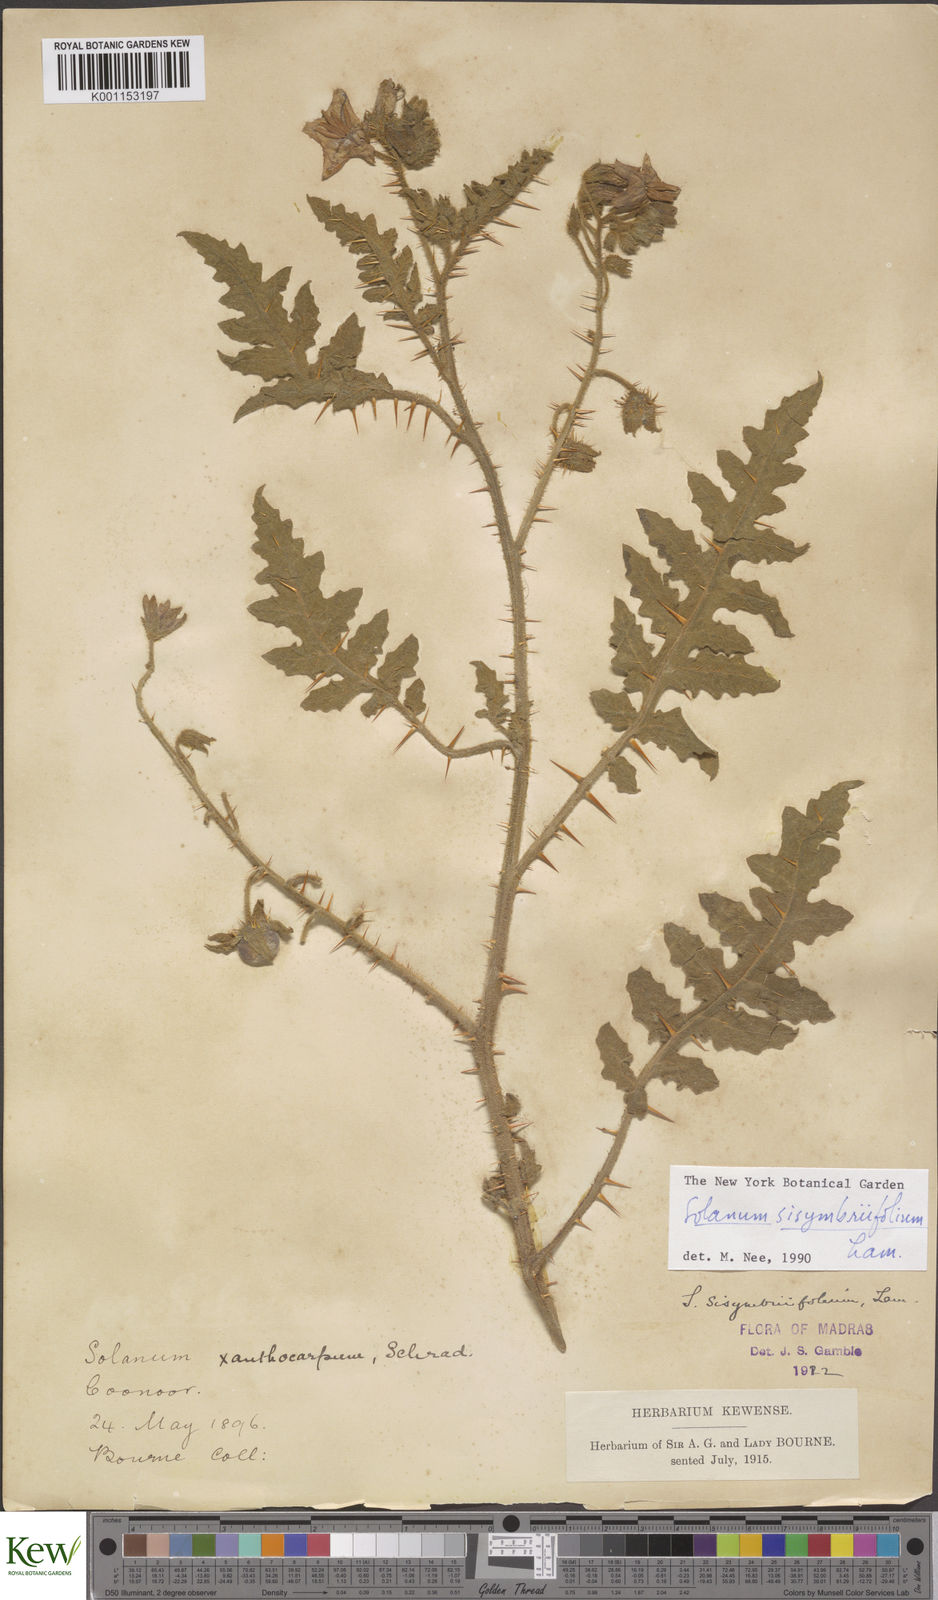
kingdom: Plantae
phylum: Tracheophyta
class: Magnoliopsida
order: Solanales
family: Solanaceae
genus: Solanum
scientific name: Solanum sisymbriifolium
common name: Red buffalo-bur
